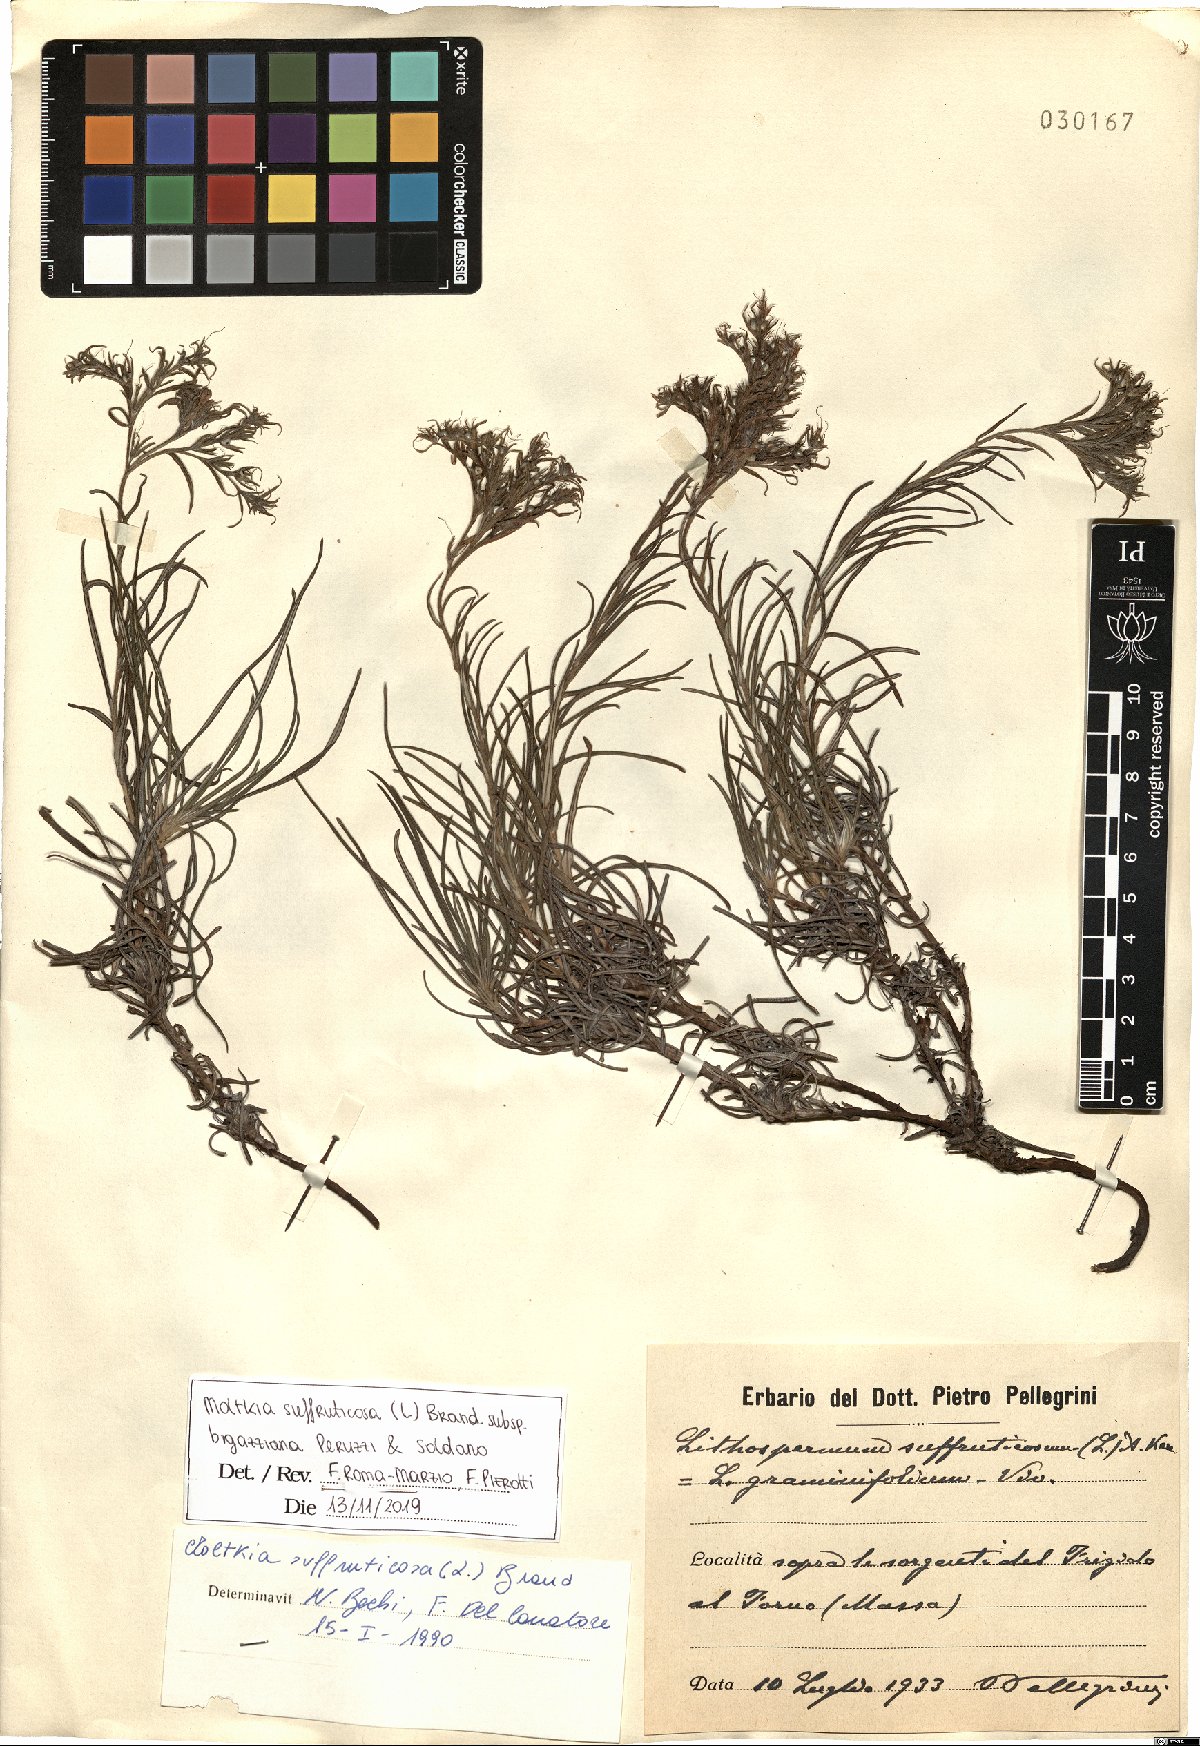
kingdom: Plantae
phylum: Tracheophyta
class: Magnoliopsida
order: Boraginales
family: Boraginaceae
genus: Moltkia
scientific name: Moltkia suffruticosa
